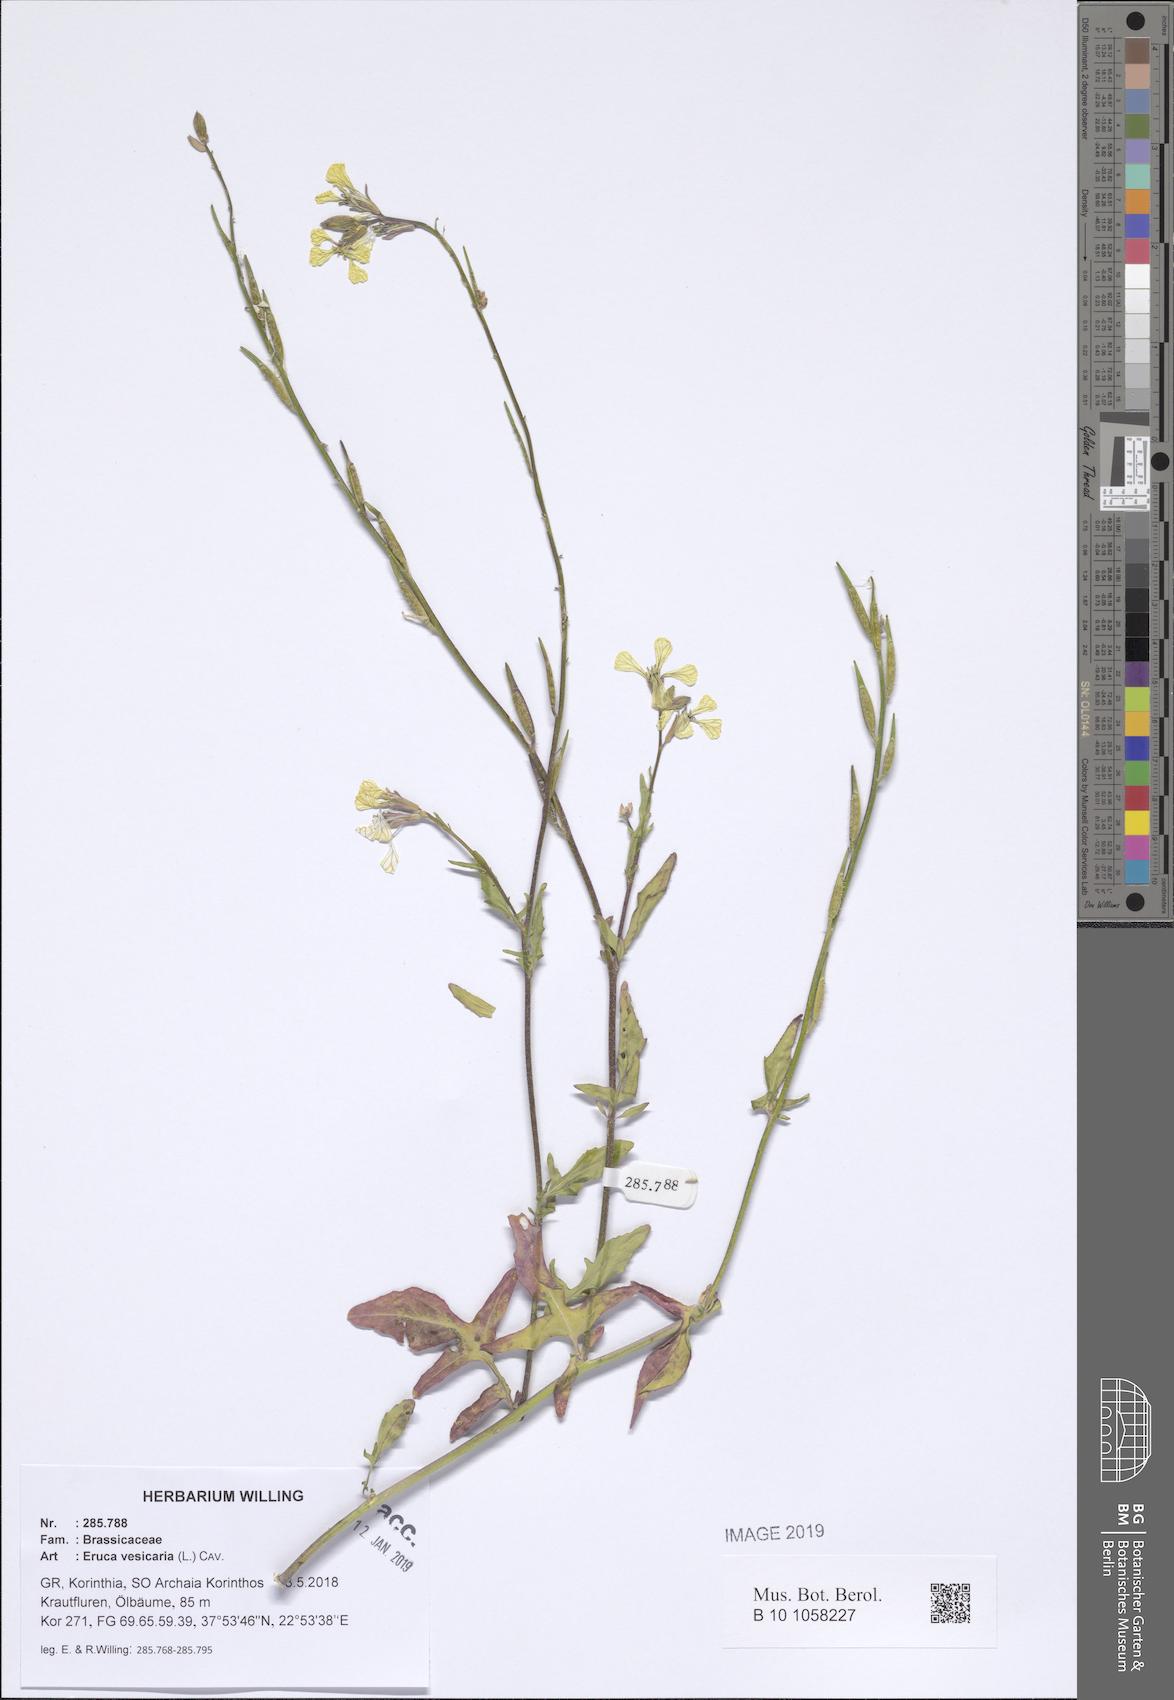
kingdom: Plantae
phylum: Tracheophyta
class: Magnoliopsida
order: Brassicales
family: Brassicaceae
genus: Eruca
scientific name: Eruca vesicaria
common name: Garden rocket
